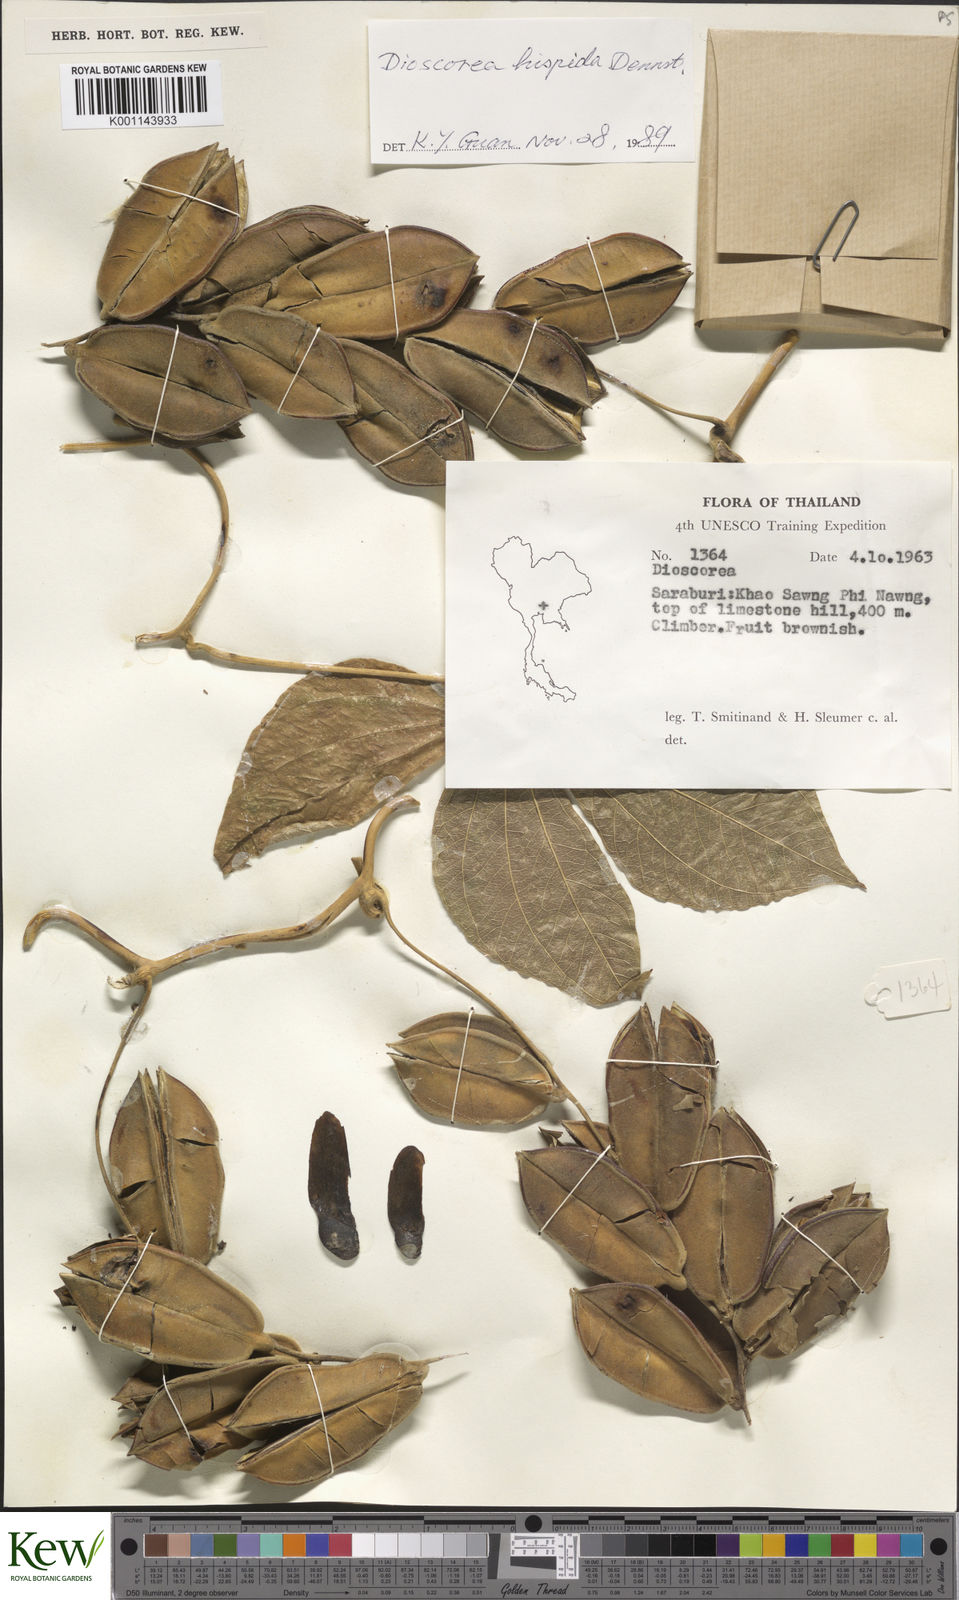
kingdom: Plantae
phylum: Tracheophyta
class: Liliopsida
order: Dioscoreales
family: Dioscoreaceae
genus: Dioscorea
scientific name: Dioscorea hispida
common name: Asiatic bitter yam
